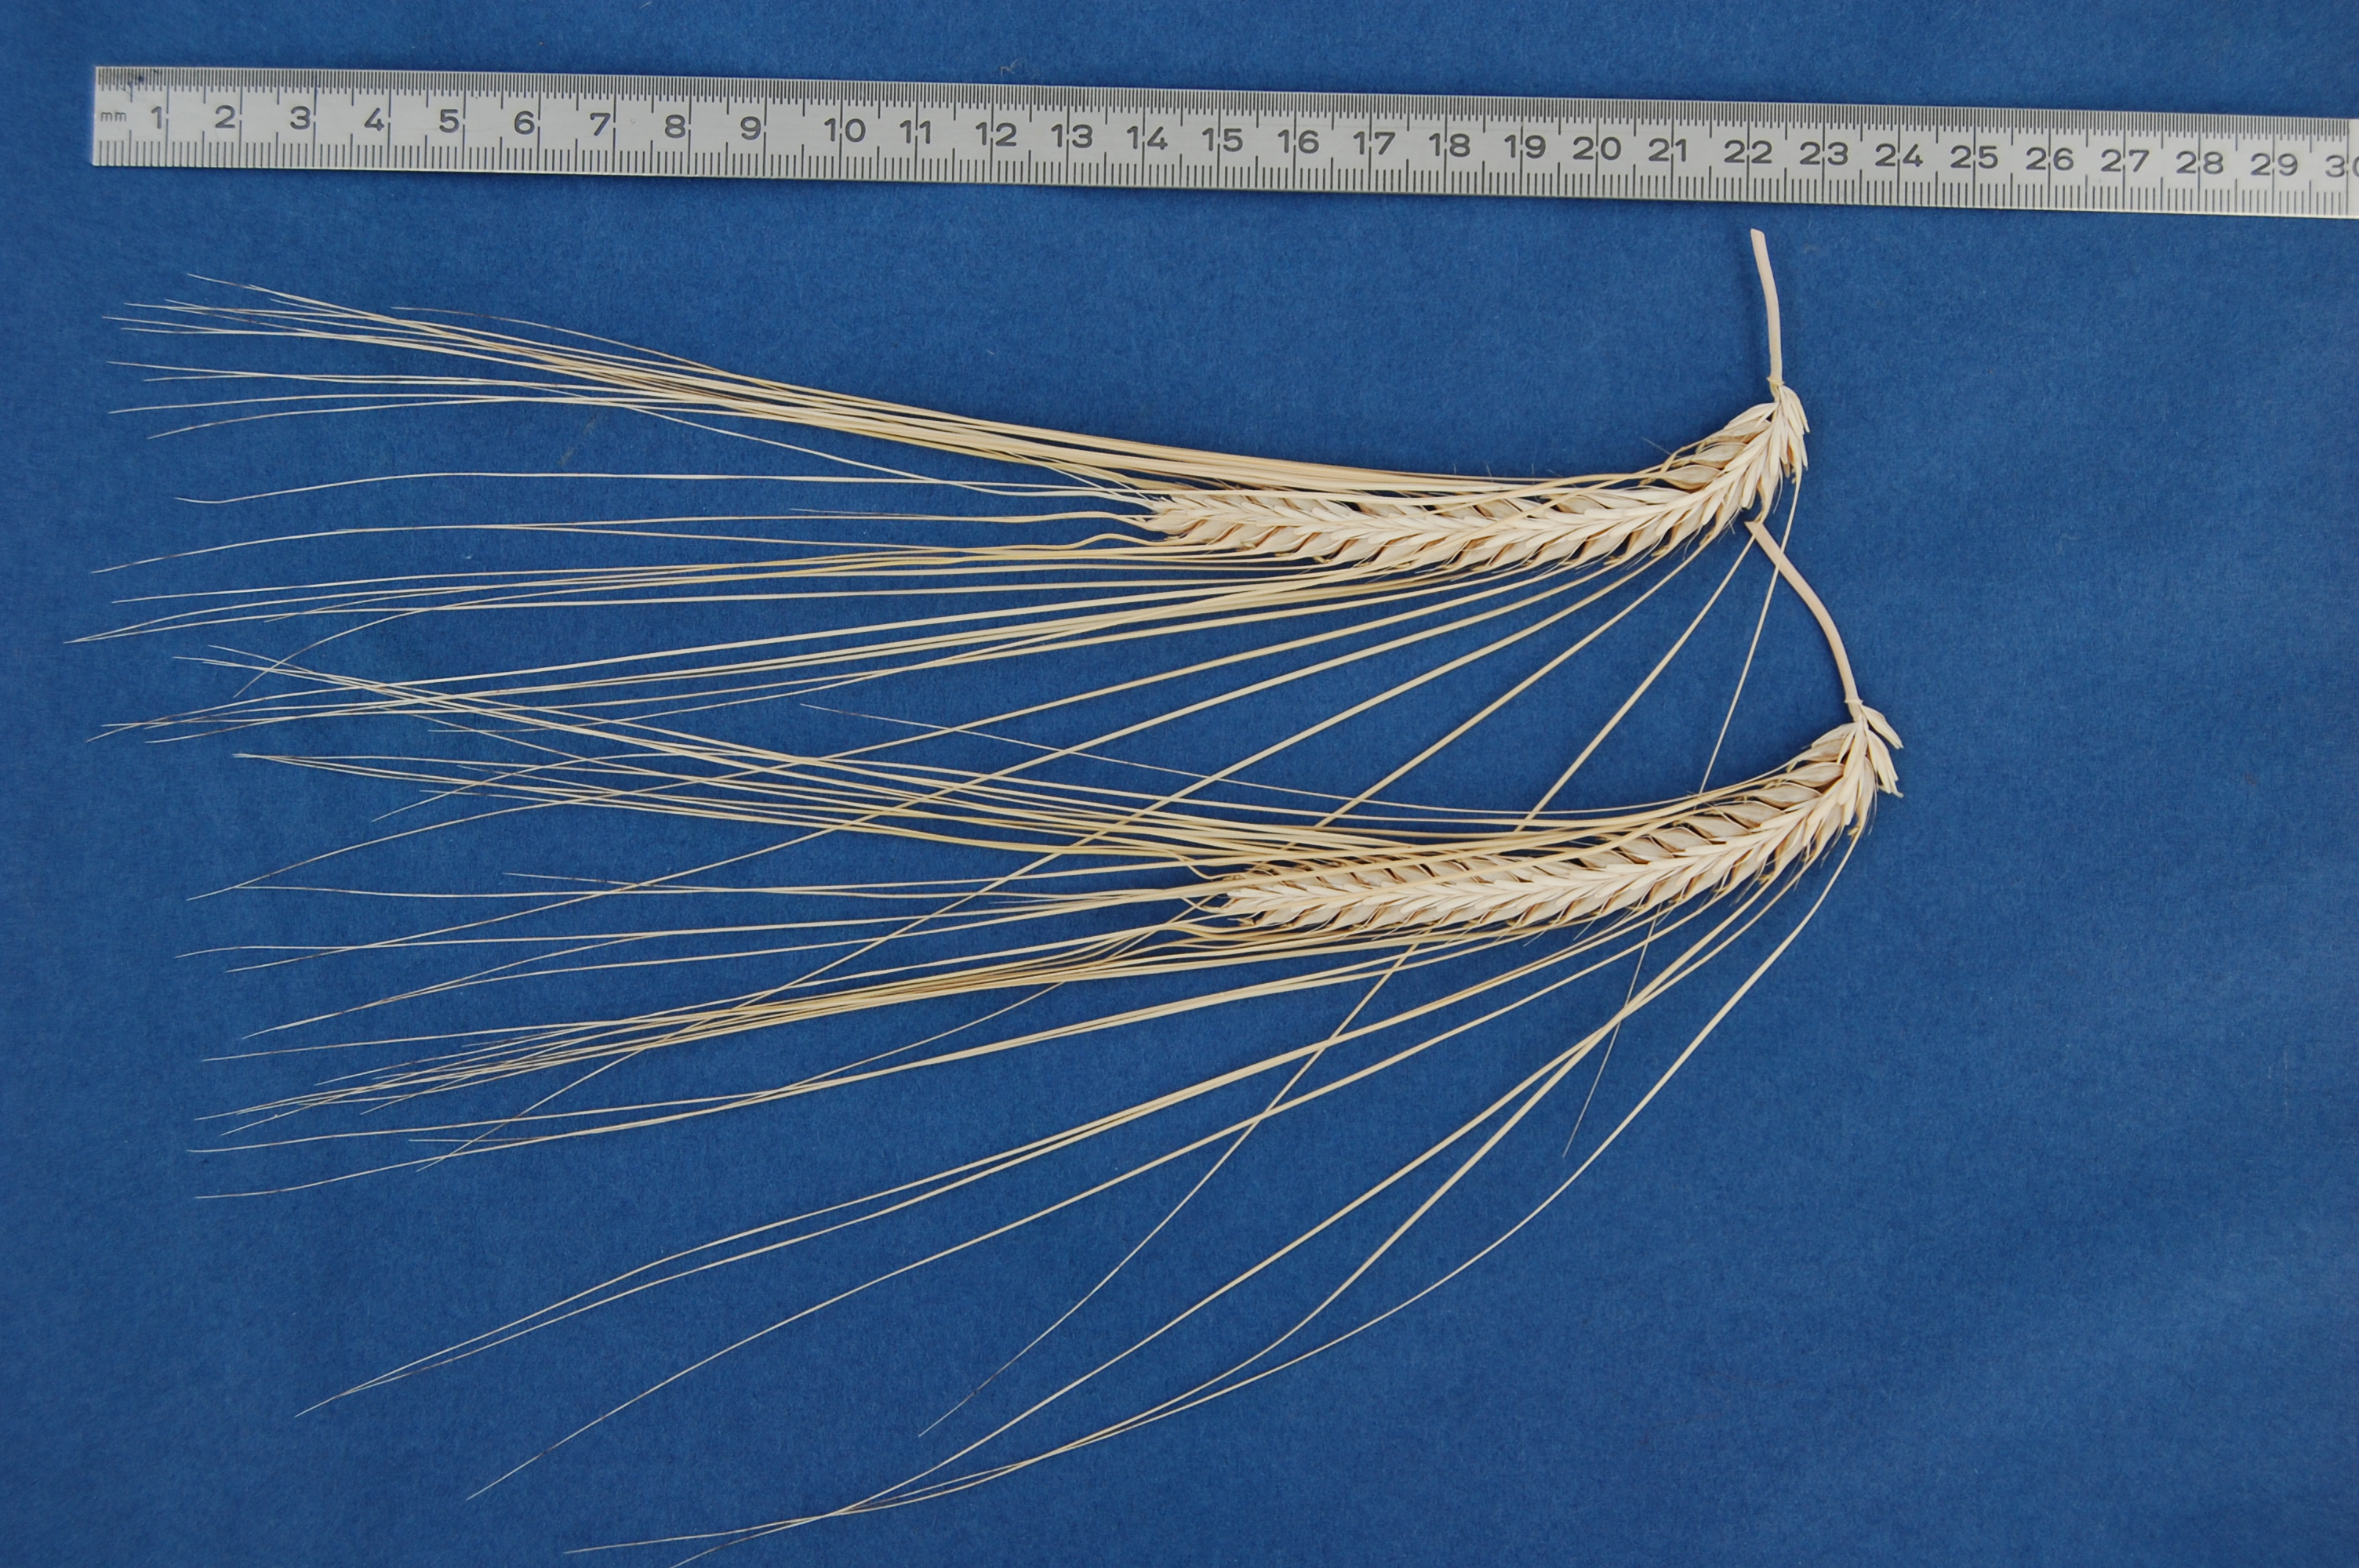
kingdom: Plantae
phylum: Tracheophyta
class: Liliopsida
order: Poales
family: Poaceae
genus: Hordeum
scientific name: Hordeum vulgare
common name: Common barley
